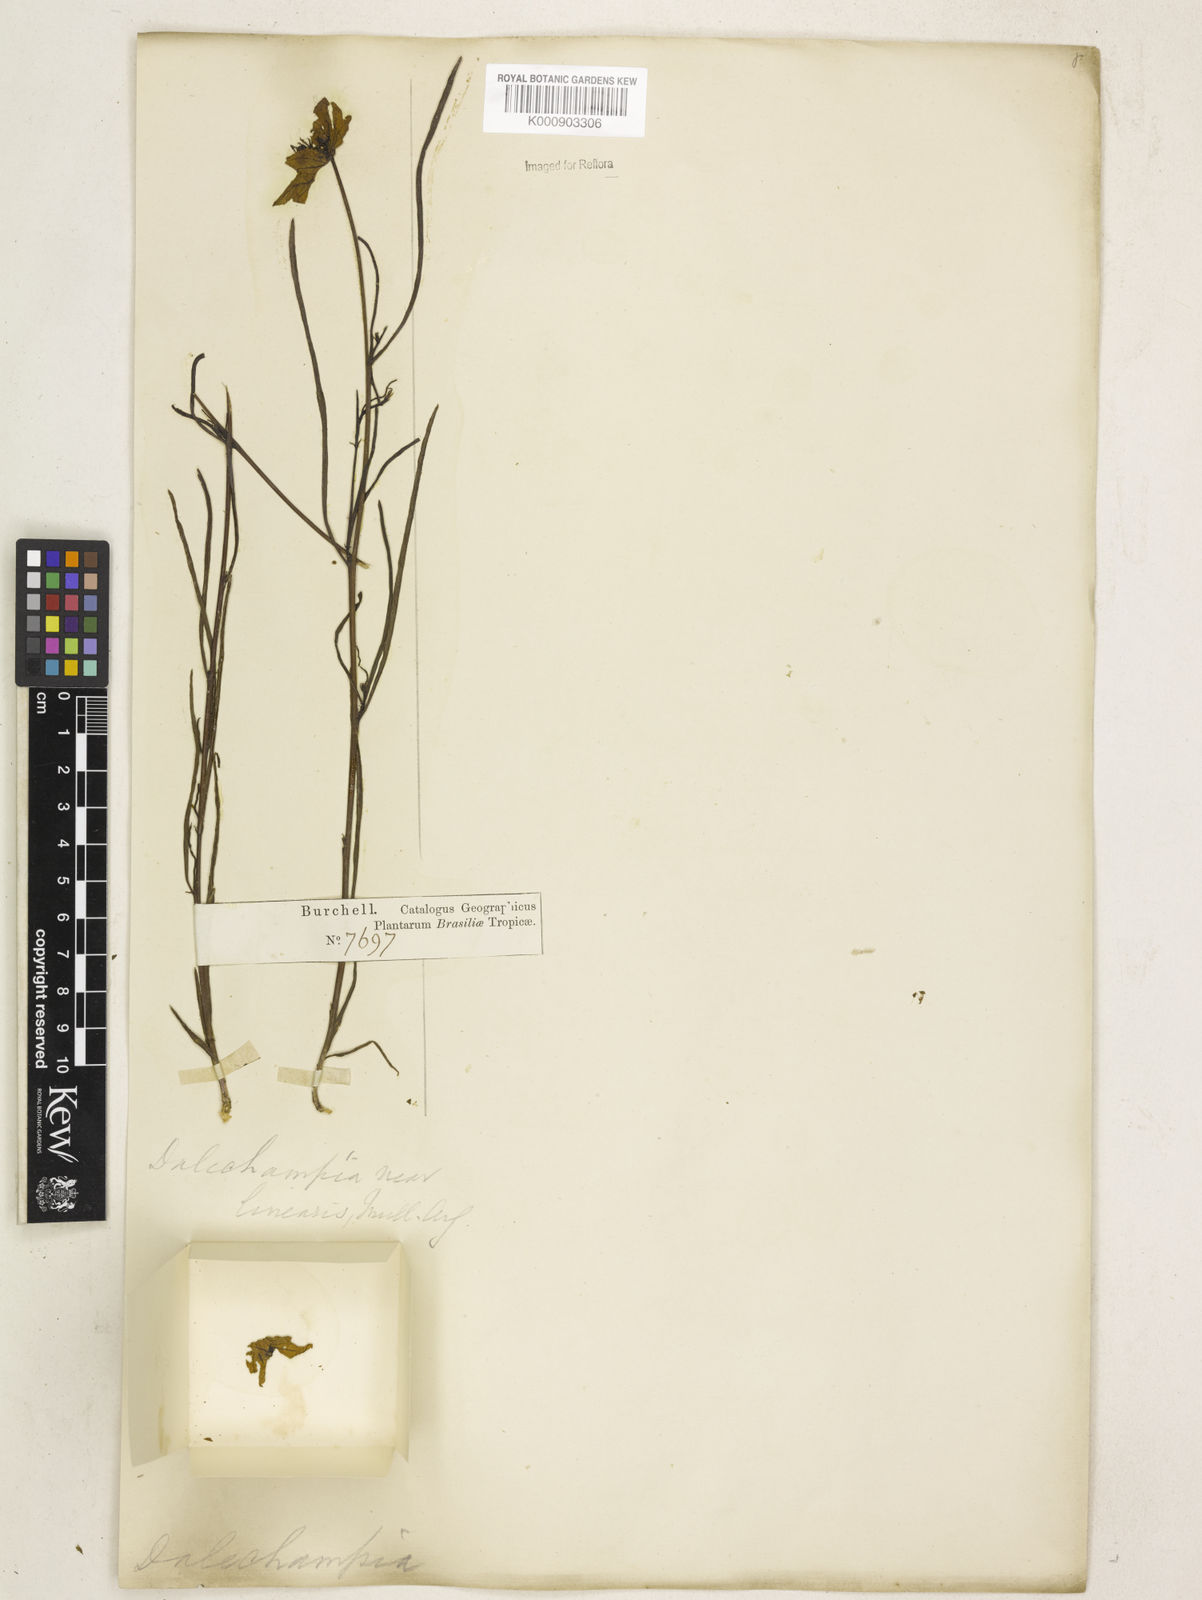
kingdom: Plantae
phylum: Tracheophyta
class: Magnoliopsida
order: Malpighiales
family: Euphorbiaceae
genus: Dalechampia
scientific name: Dalechampia linearis
